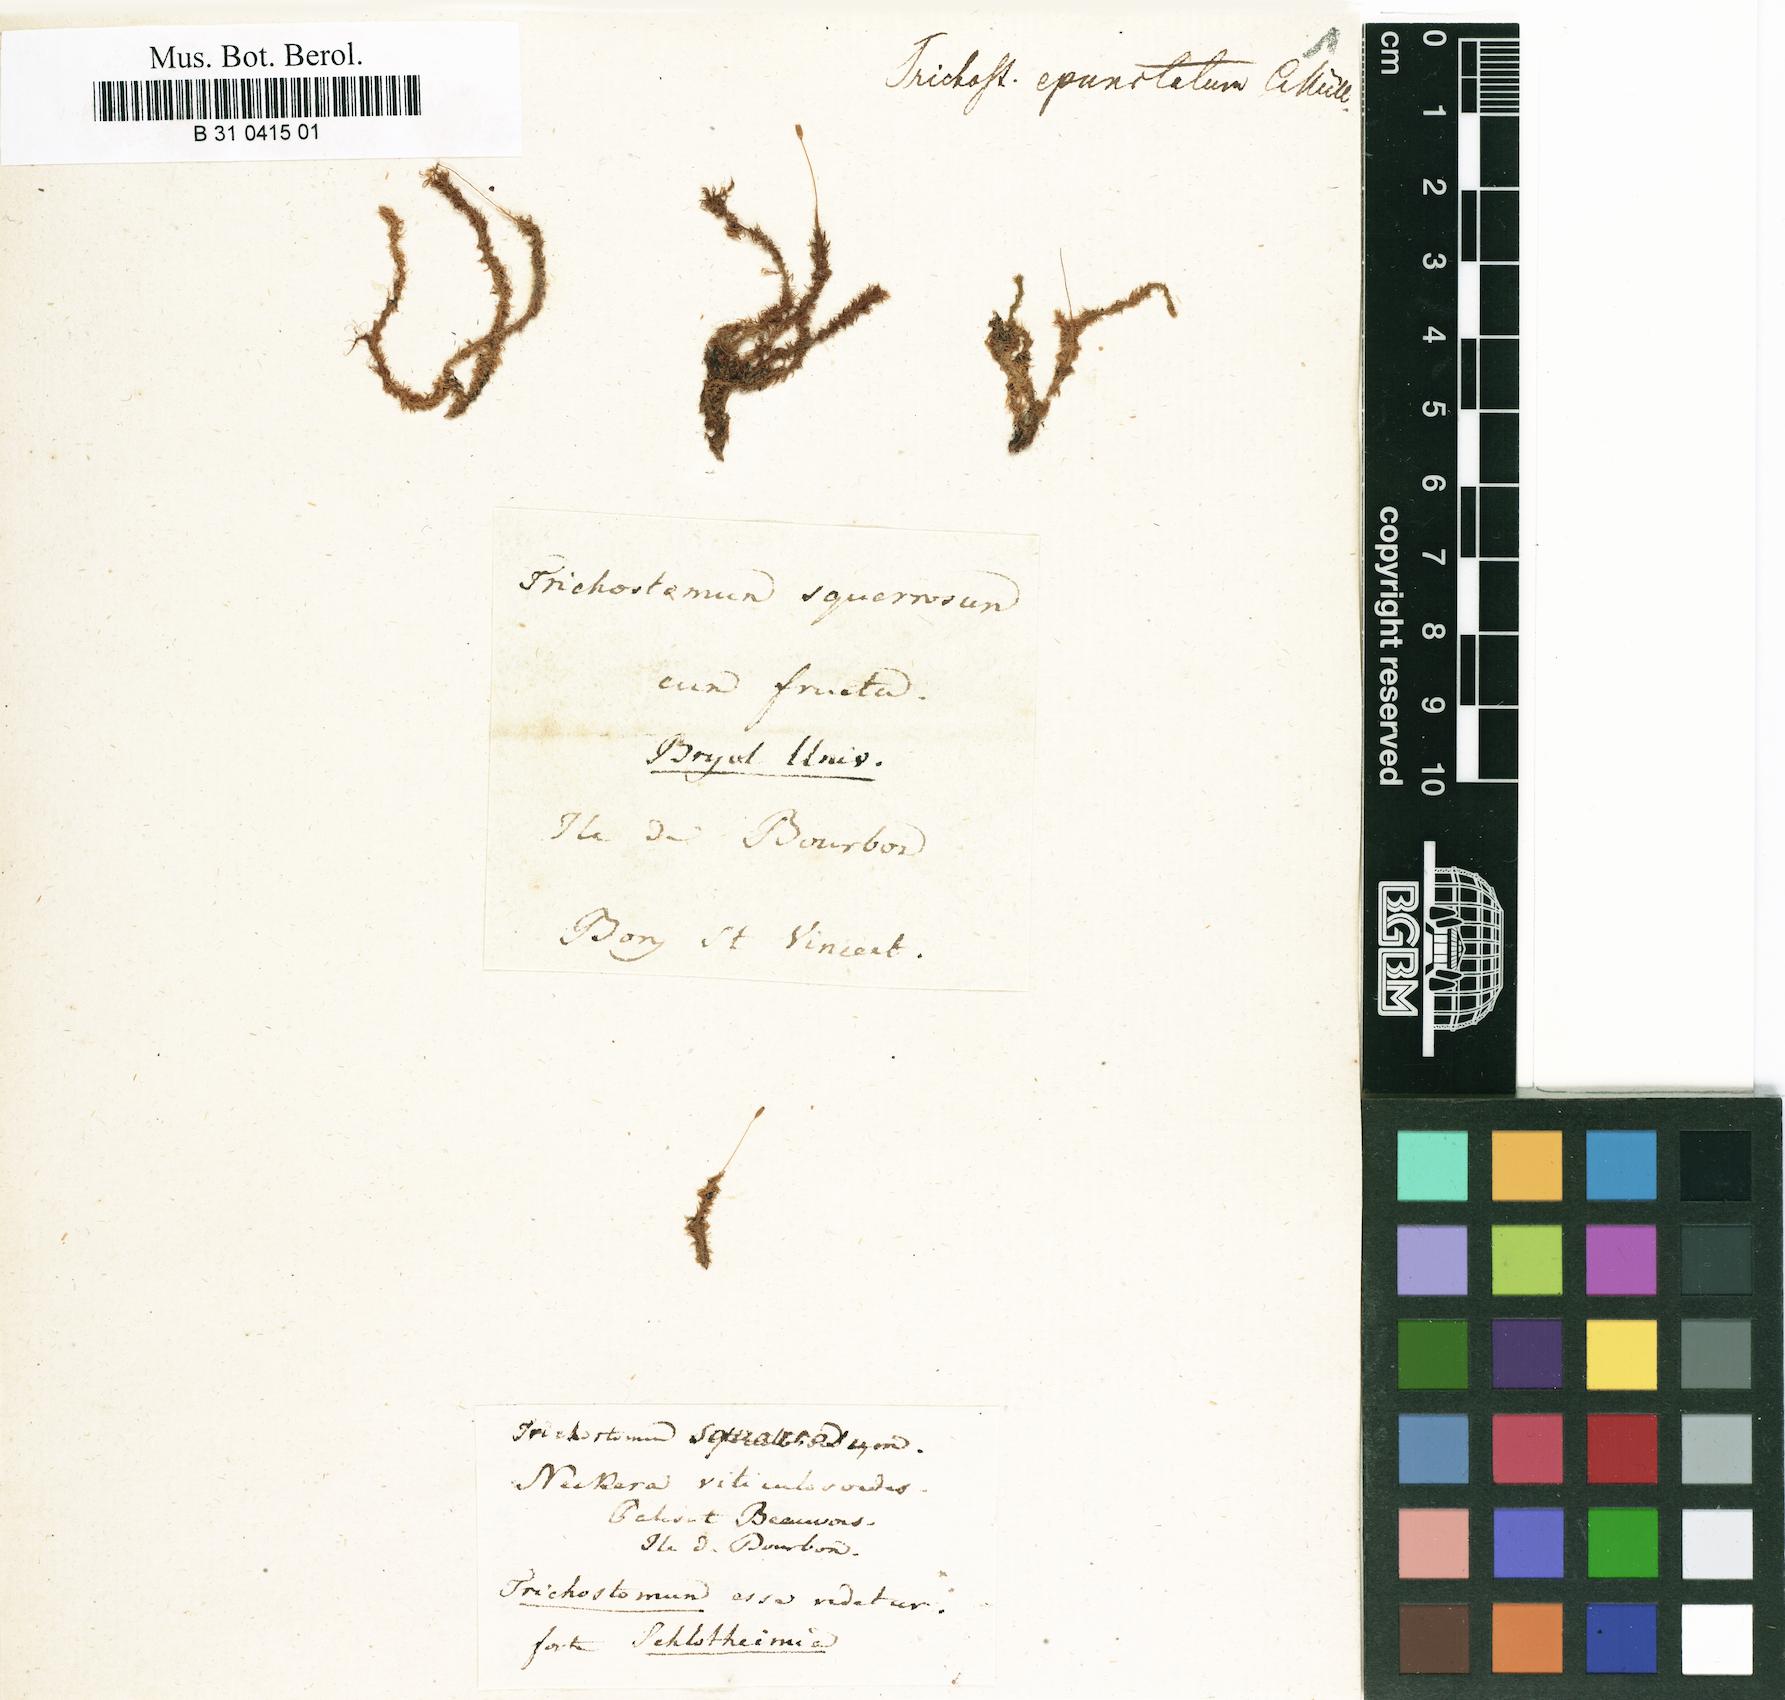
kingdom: Plantae
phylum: Bryophyta
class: Bryopsida
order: Pottiales
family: Pottiaceae
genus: Leptodontium
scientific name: Leptodontium viticulosoides
